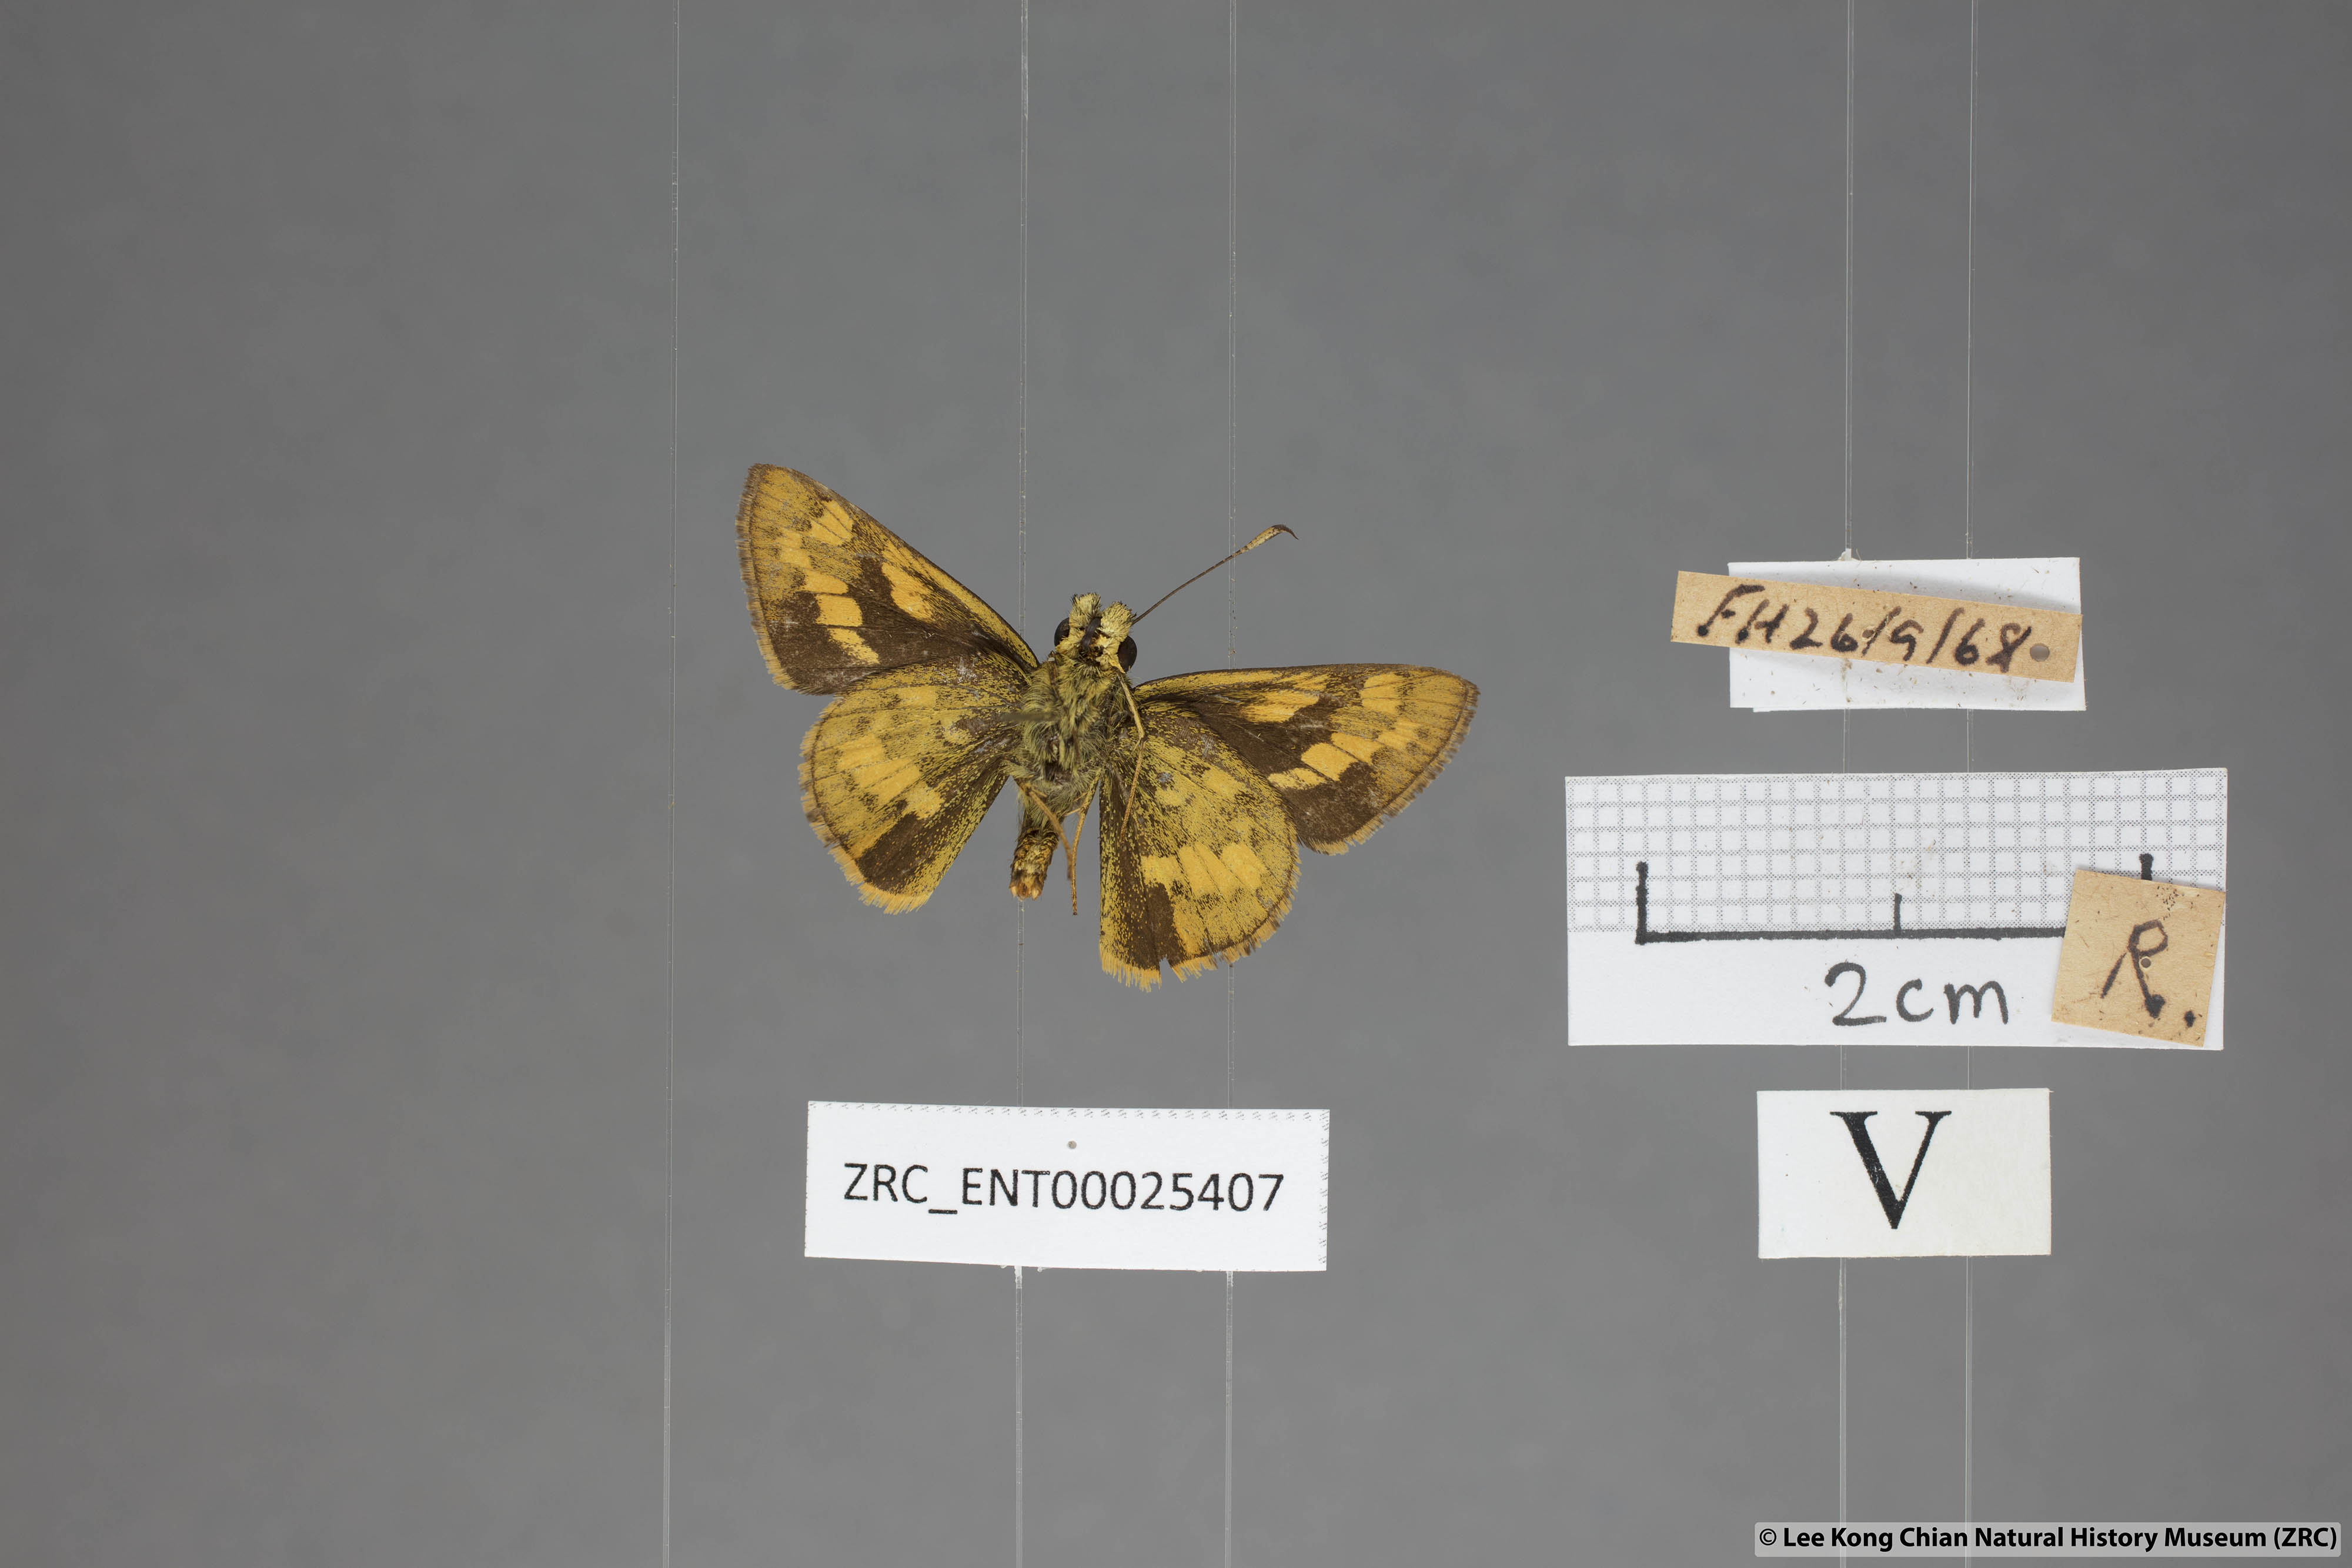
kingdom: Animalia
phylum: Arthropoda
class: Insecta
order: Lepidoptera
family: Hesperiidae
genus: Potanthus
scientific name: Potanthus lydia
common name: Lydia dart
